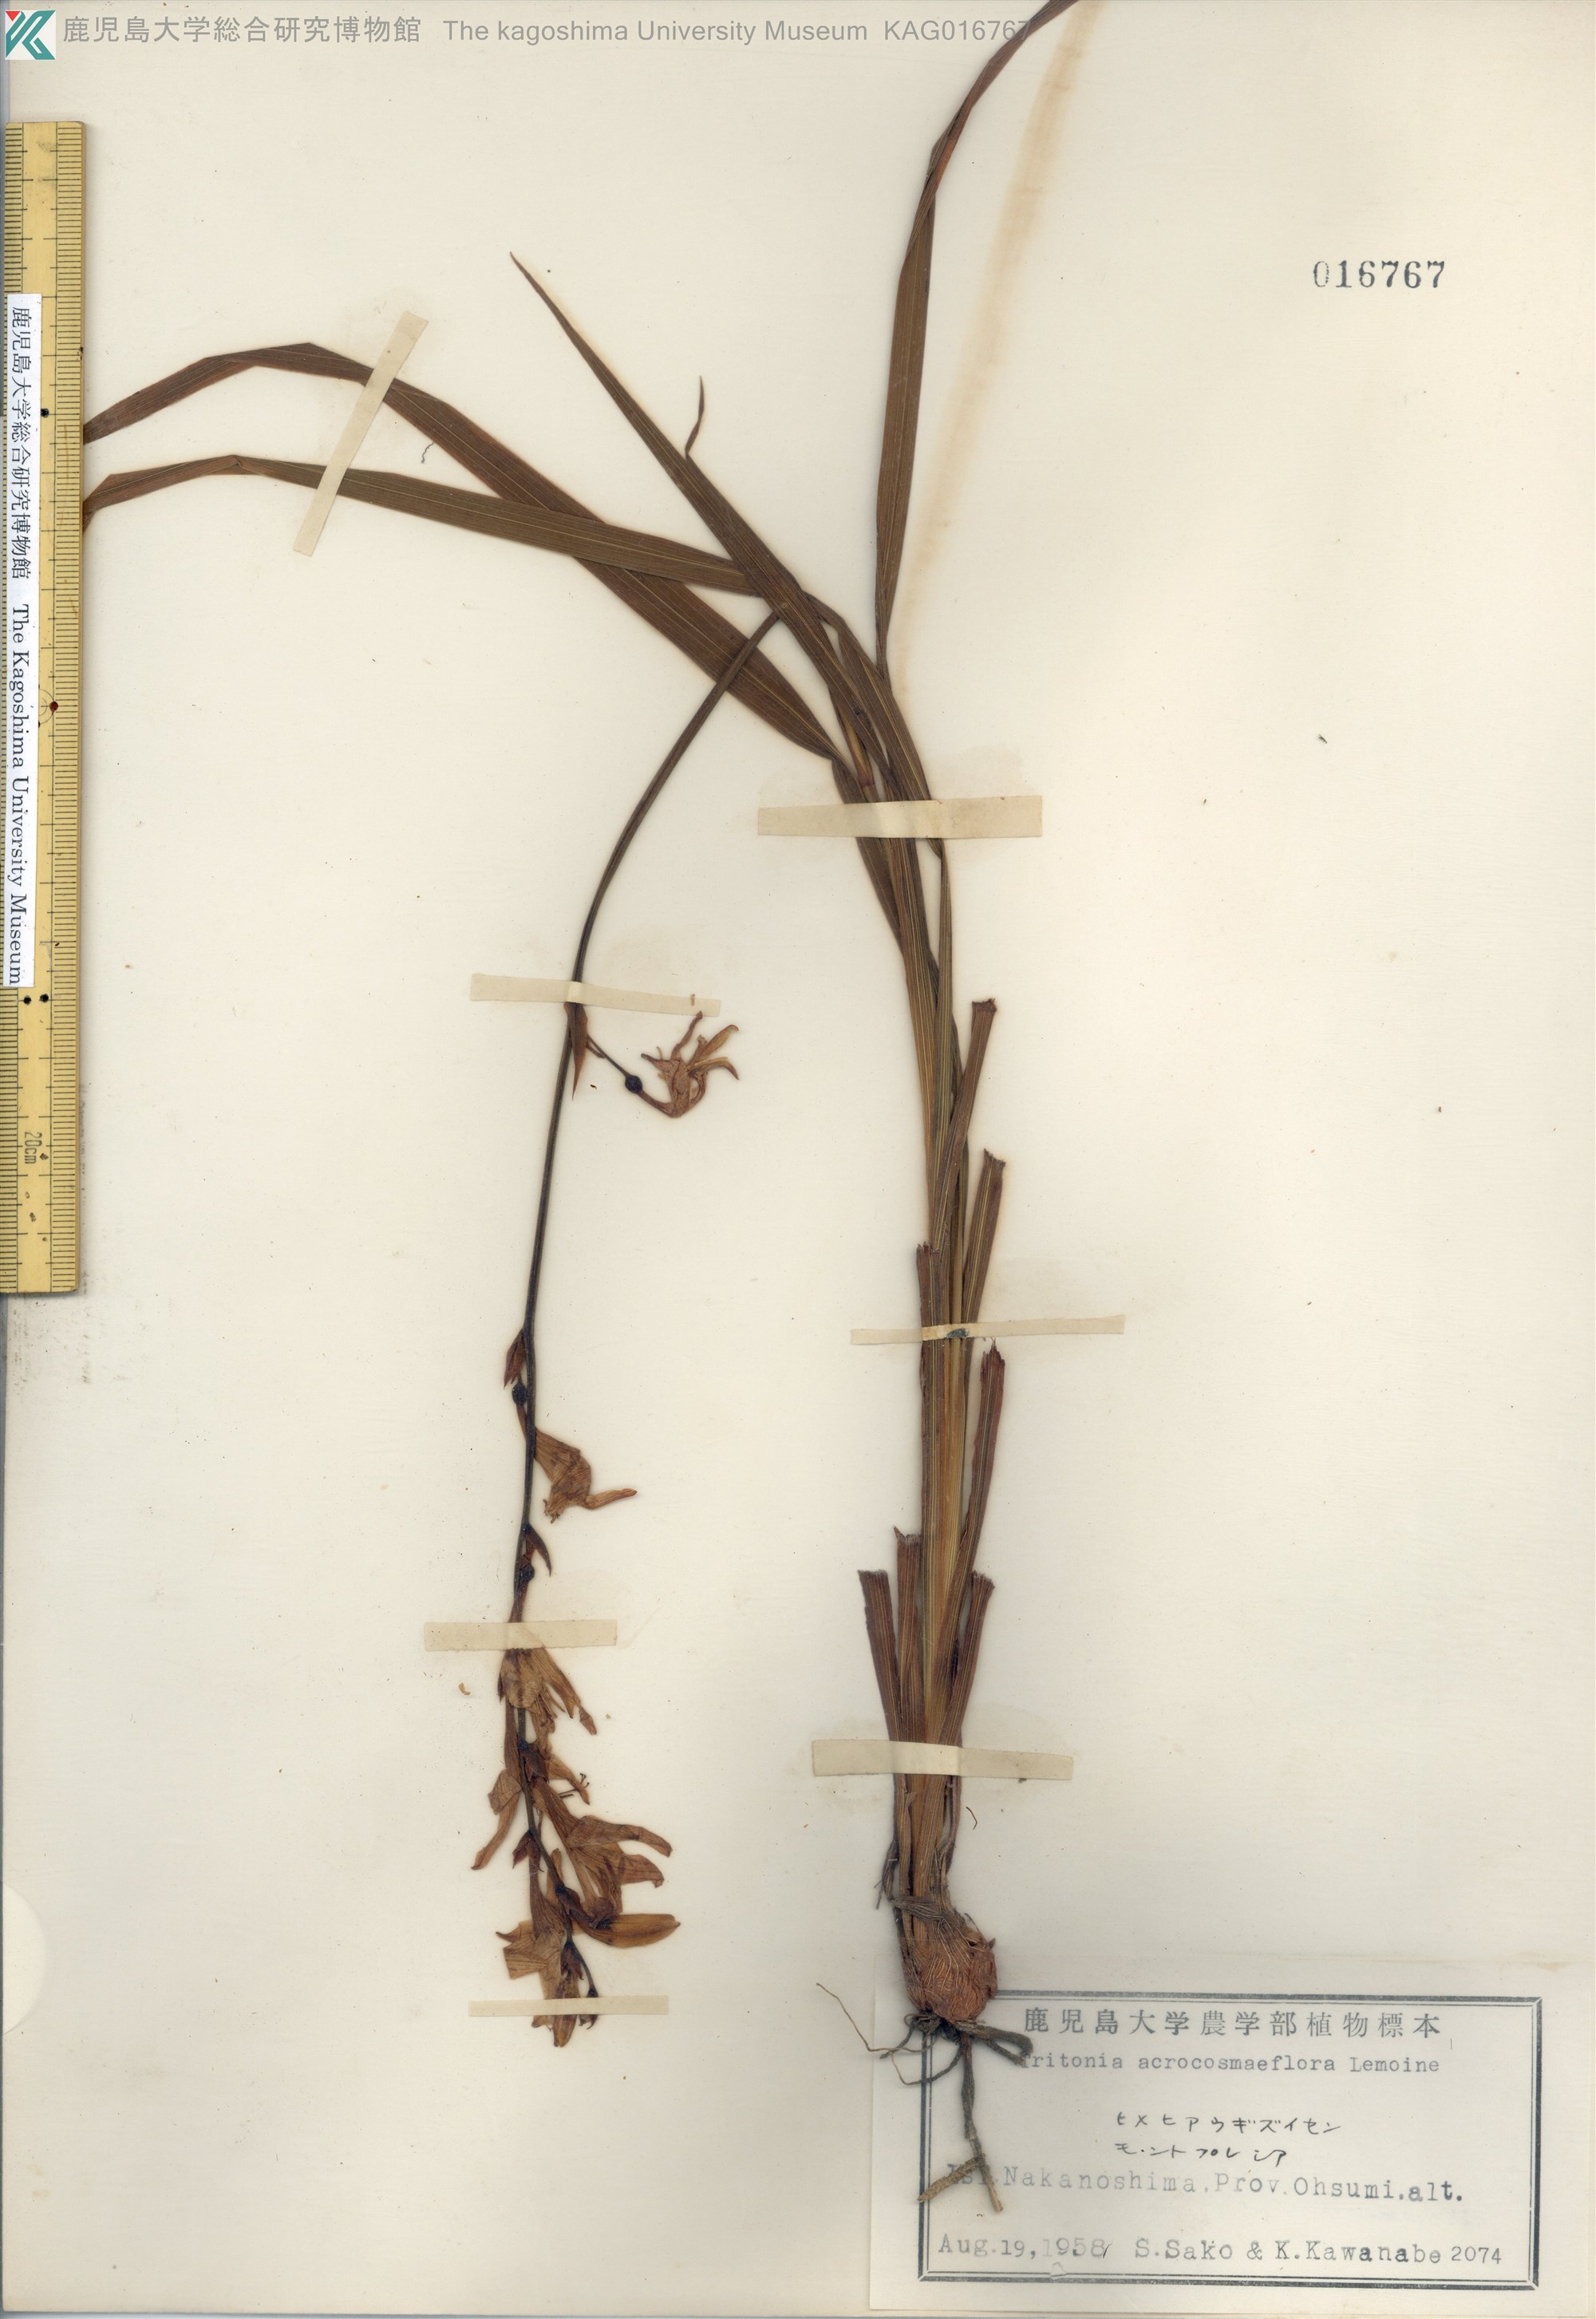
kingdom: Plantae
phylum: Tracheophyta
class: Liliopsida
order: Asparagales
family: Iridaceae
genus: Crocosmia
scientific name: Crocosmia crocosmiiflora
